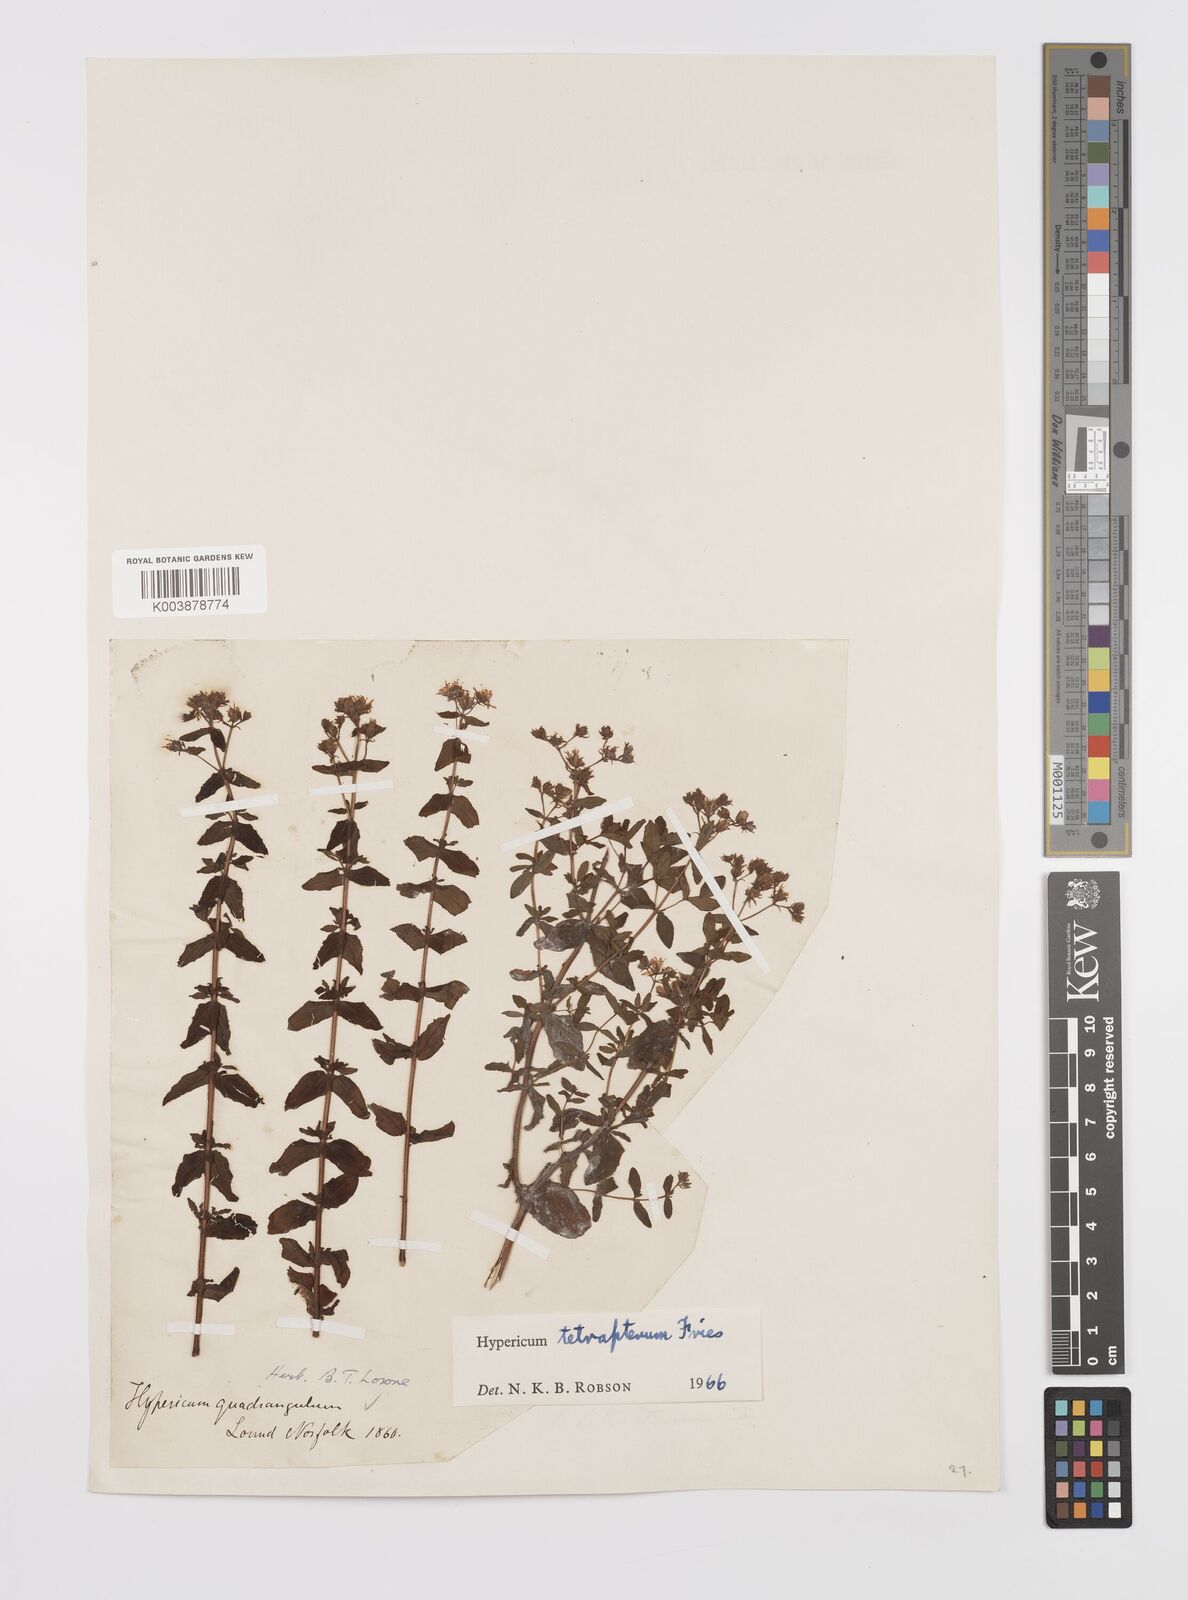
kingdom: Plantae
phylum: Tracheophyta
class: Magnoliopsida
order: Malpighiales
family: Hypericaceae
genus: Hypericum
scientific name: Hypericum tetrapterum
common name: Square-stalked st. john's-wort
